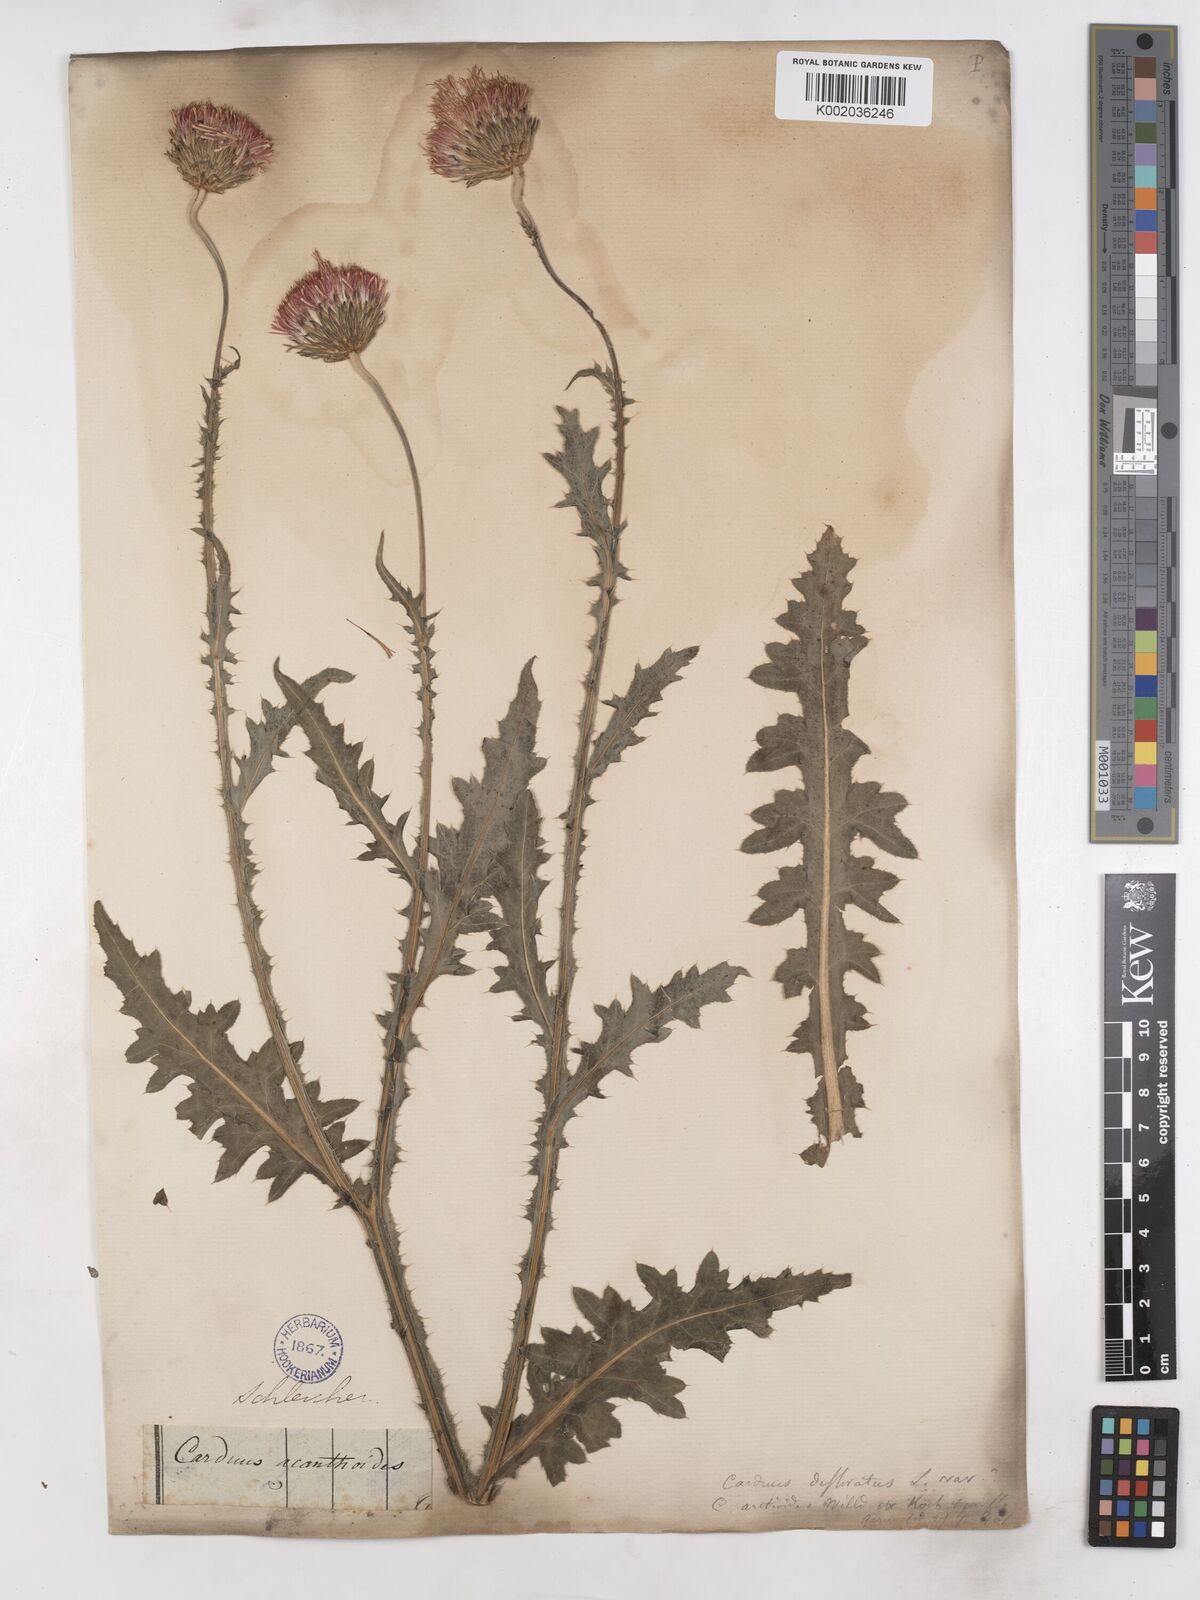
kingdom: Plantae
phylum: Tracheophyta
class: Magnoliopsida
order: Asterales
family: Asteraceae
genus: Carduus
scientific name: Carduus defloratus
